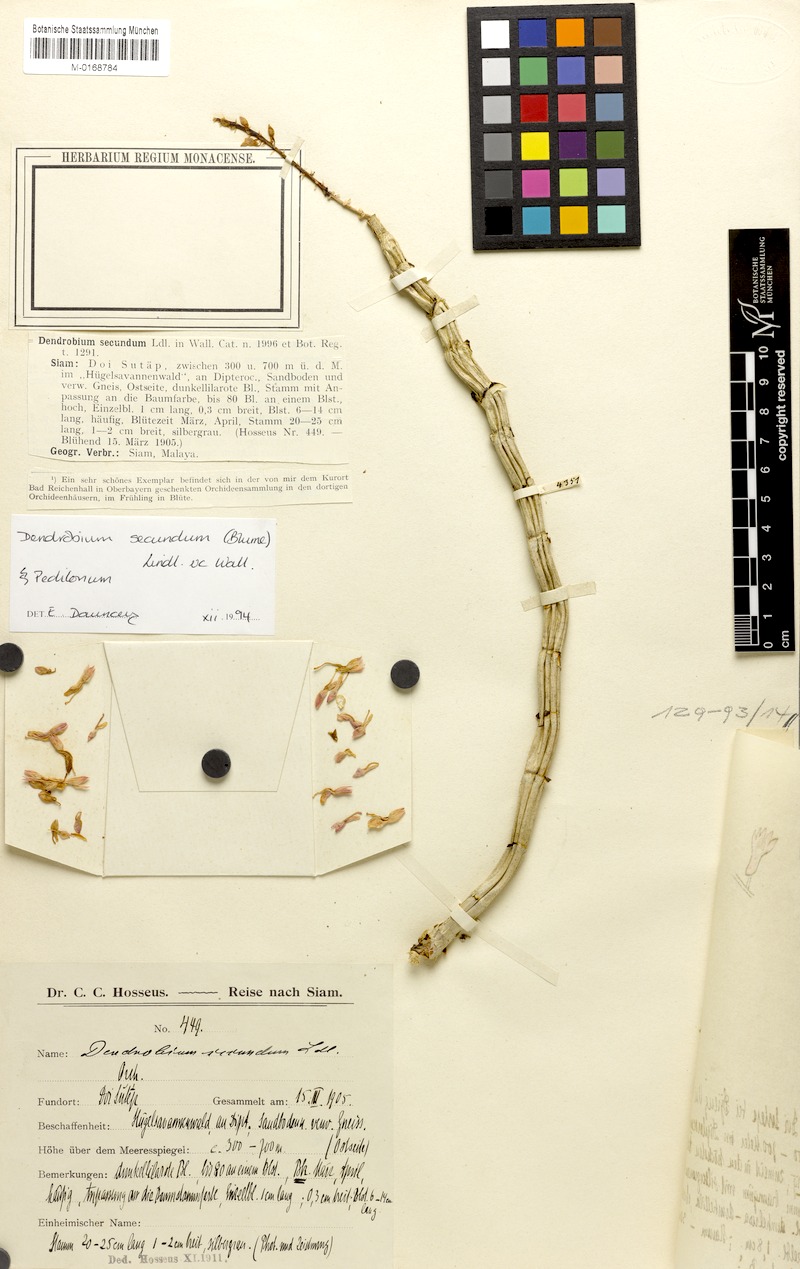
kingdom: Plantae
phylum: Tracheophyta
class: Liliopsida
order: Asparagales
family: Orchidaceae
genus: Dendrobium
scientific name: Dendrobium secundum
